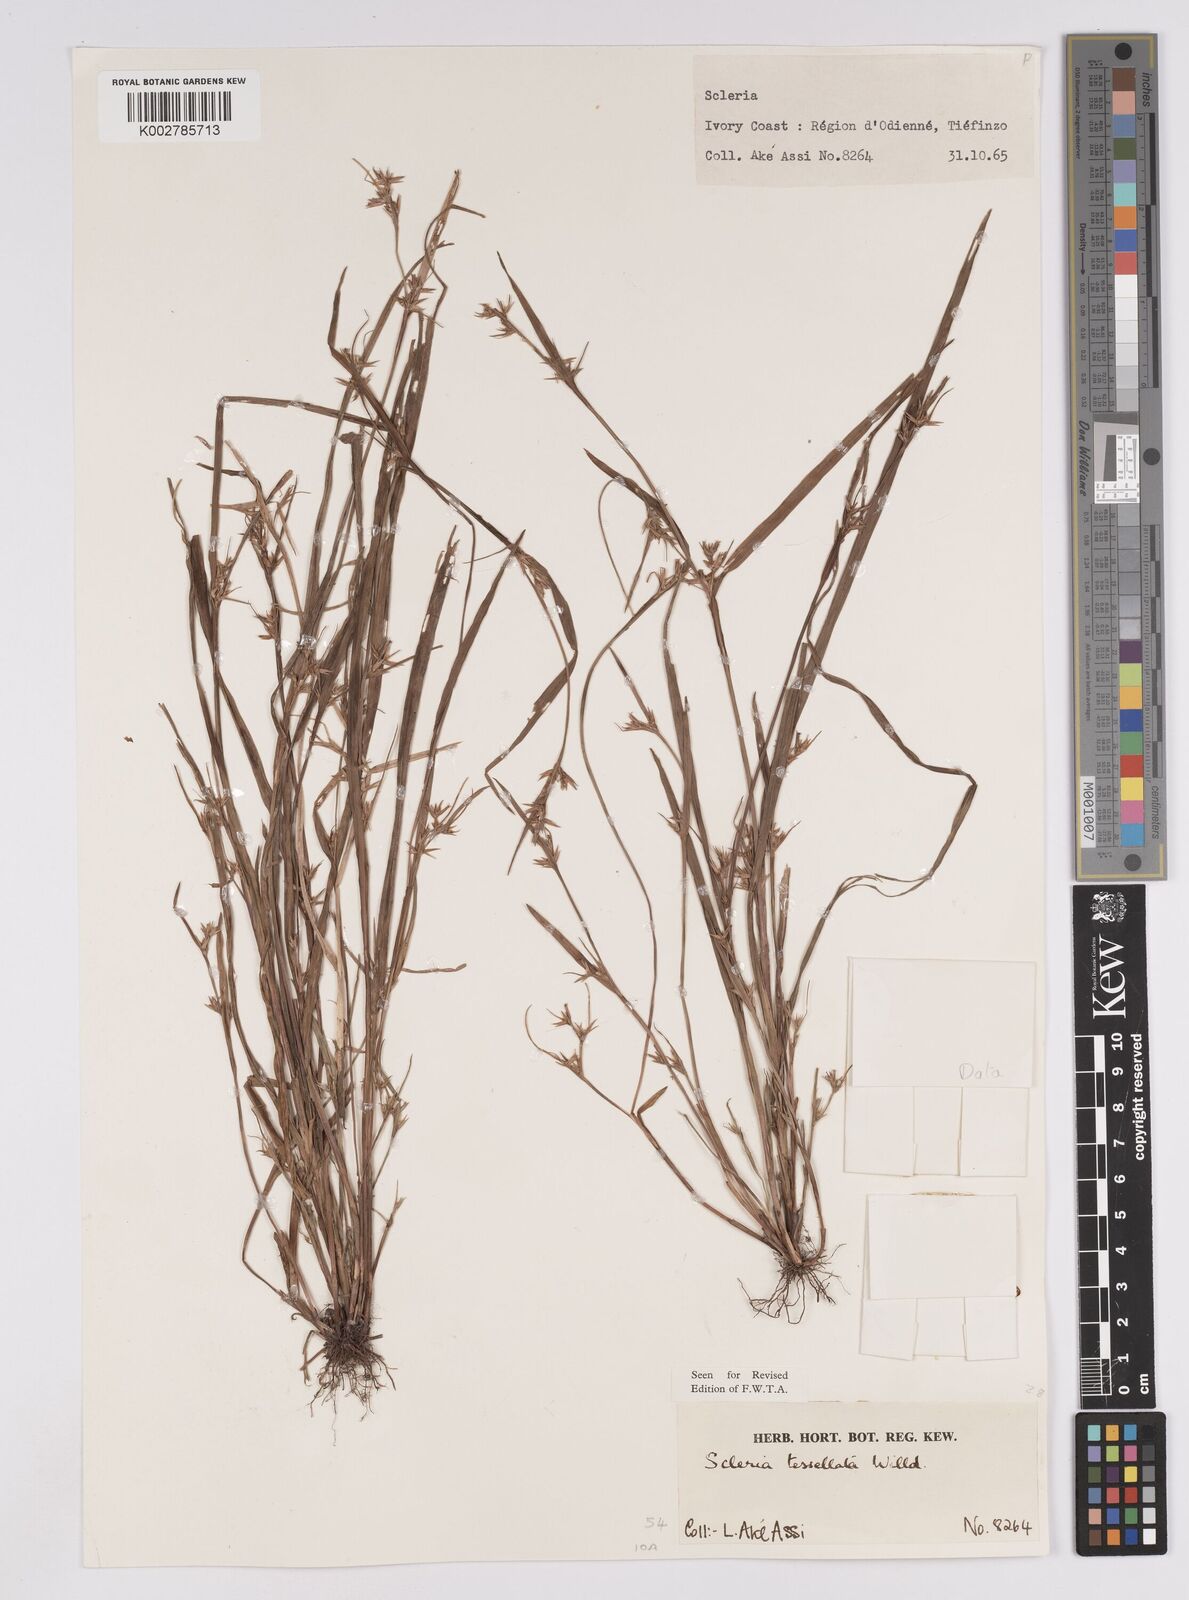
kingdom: Plantae
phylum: Tracheophyta
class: Liliopsida
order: Poales
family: Cyperaceae
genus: Scleria
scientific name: Scleria tessellata
